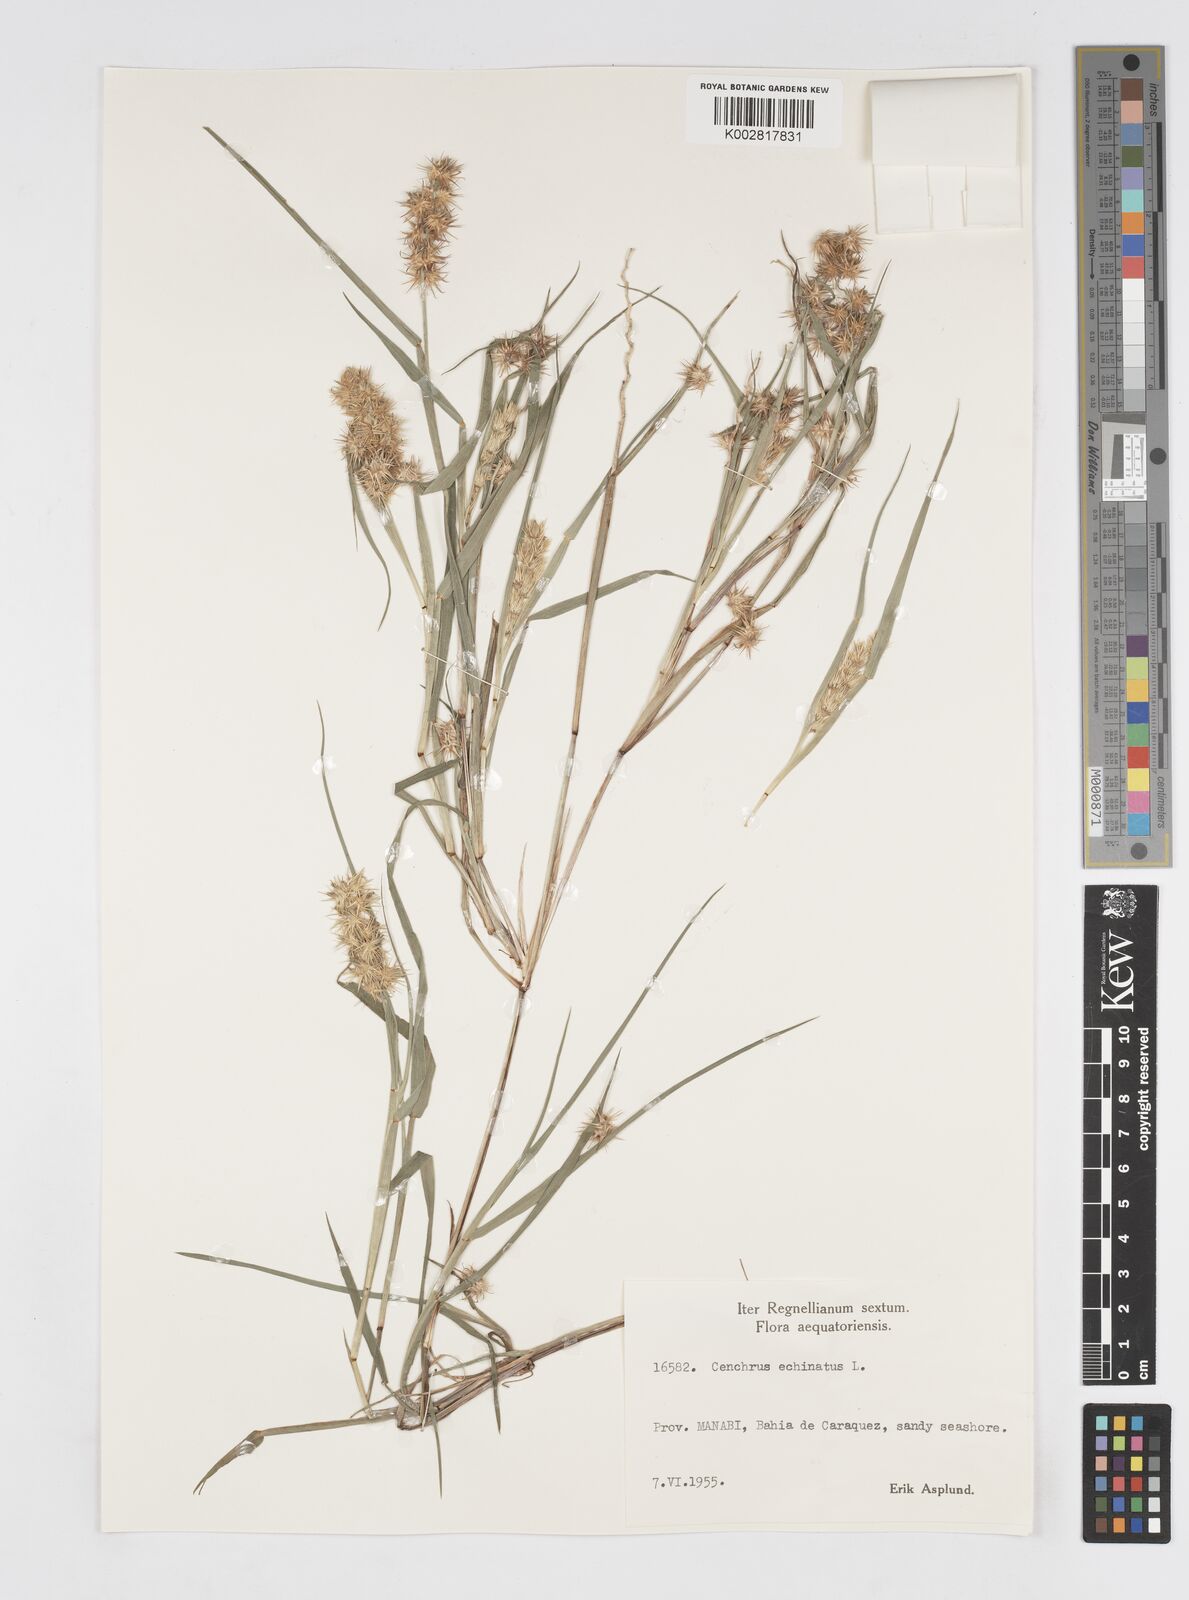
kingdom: Plantae
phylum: Tracheophyta
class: Liliopsida
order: Poales
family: Poaceae
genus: Cenchrus
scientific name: Cenchrus
